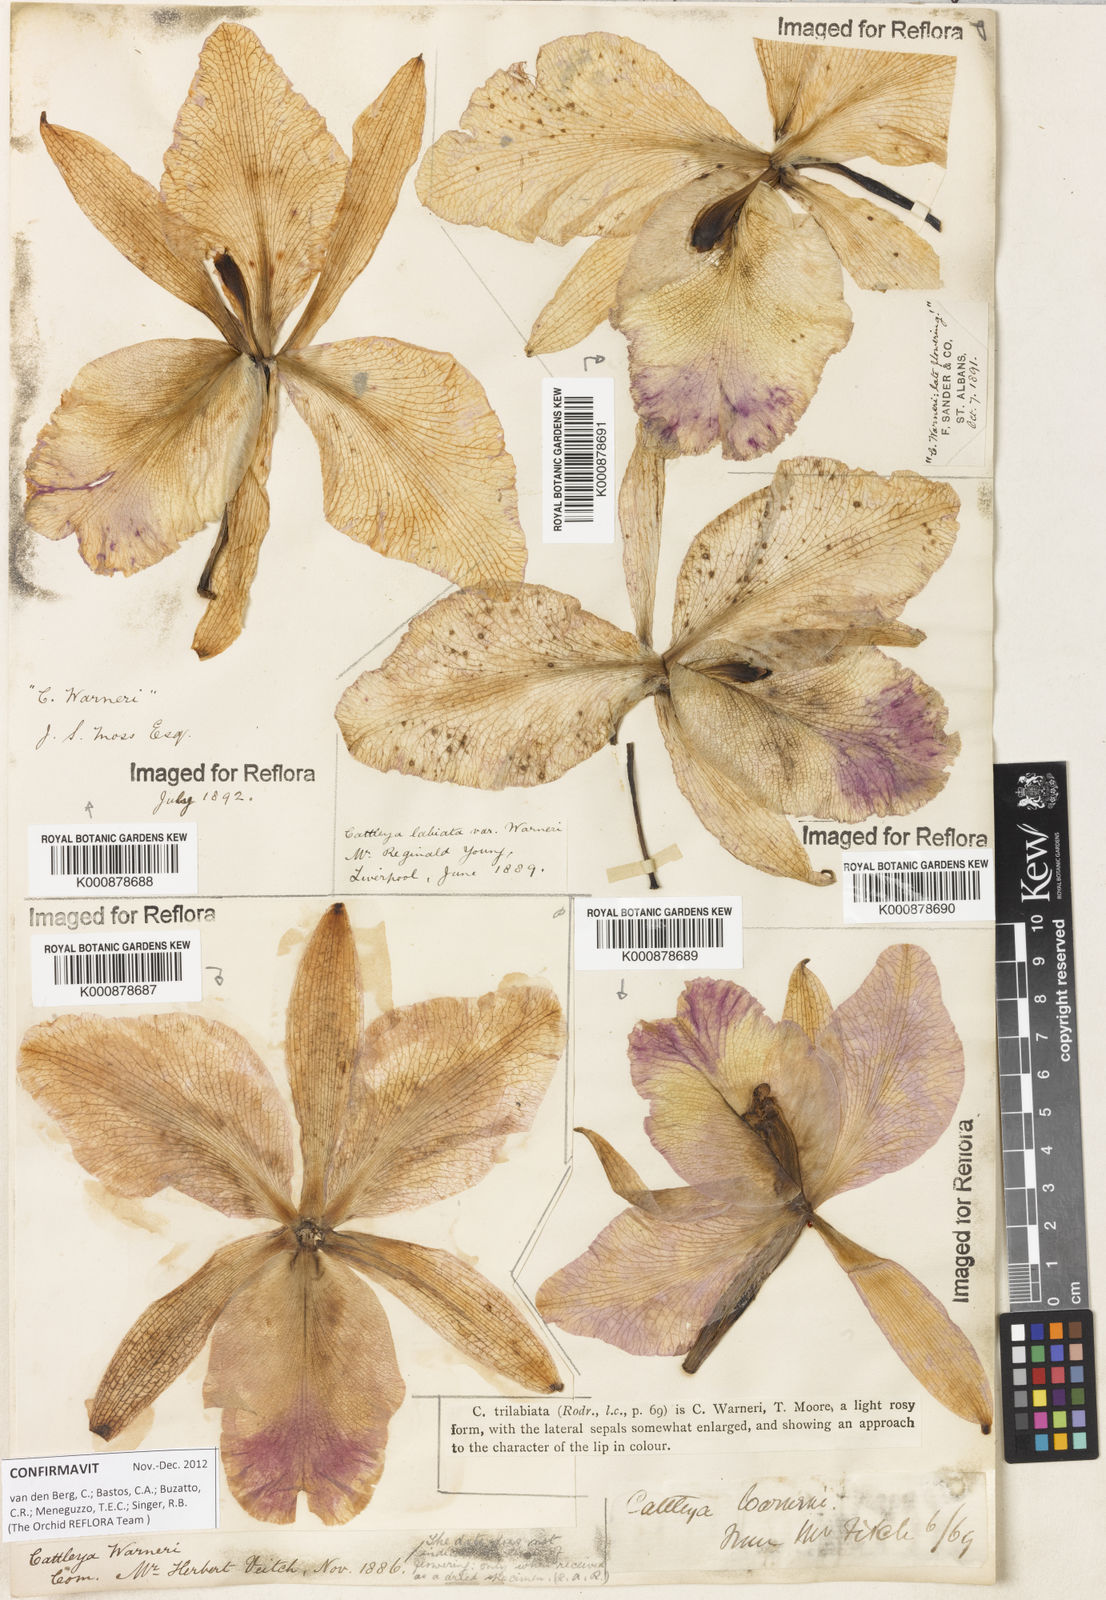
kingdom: Plantae
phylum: Tracheophyta
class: Liliopsida
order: Asparagales
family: Orchidaceae
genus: Cattleya
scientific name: Cattleya
